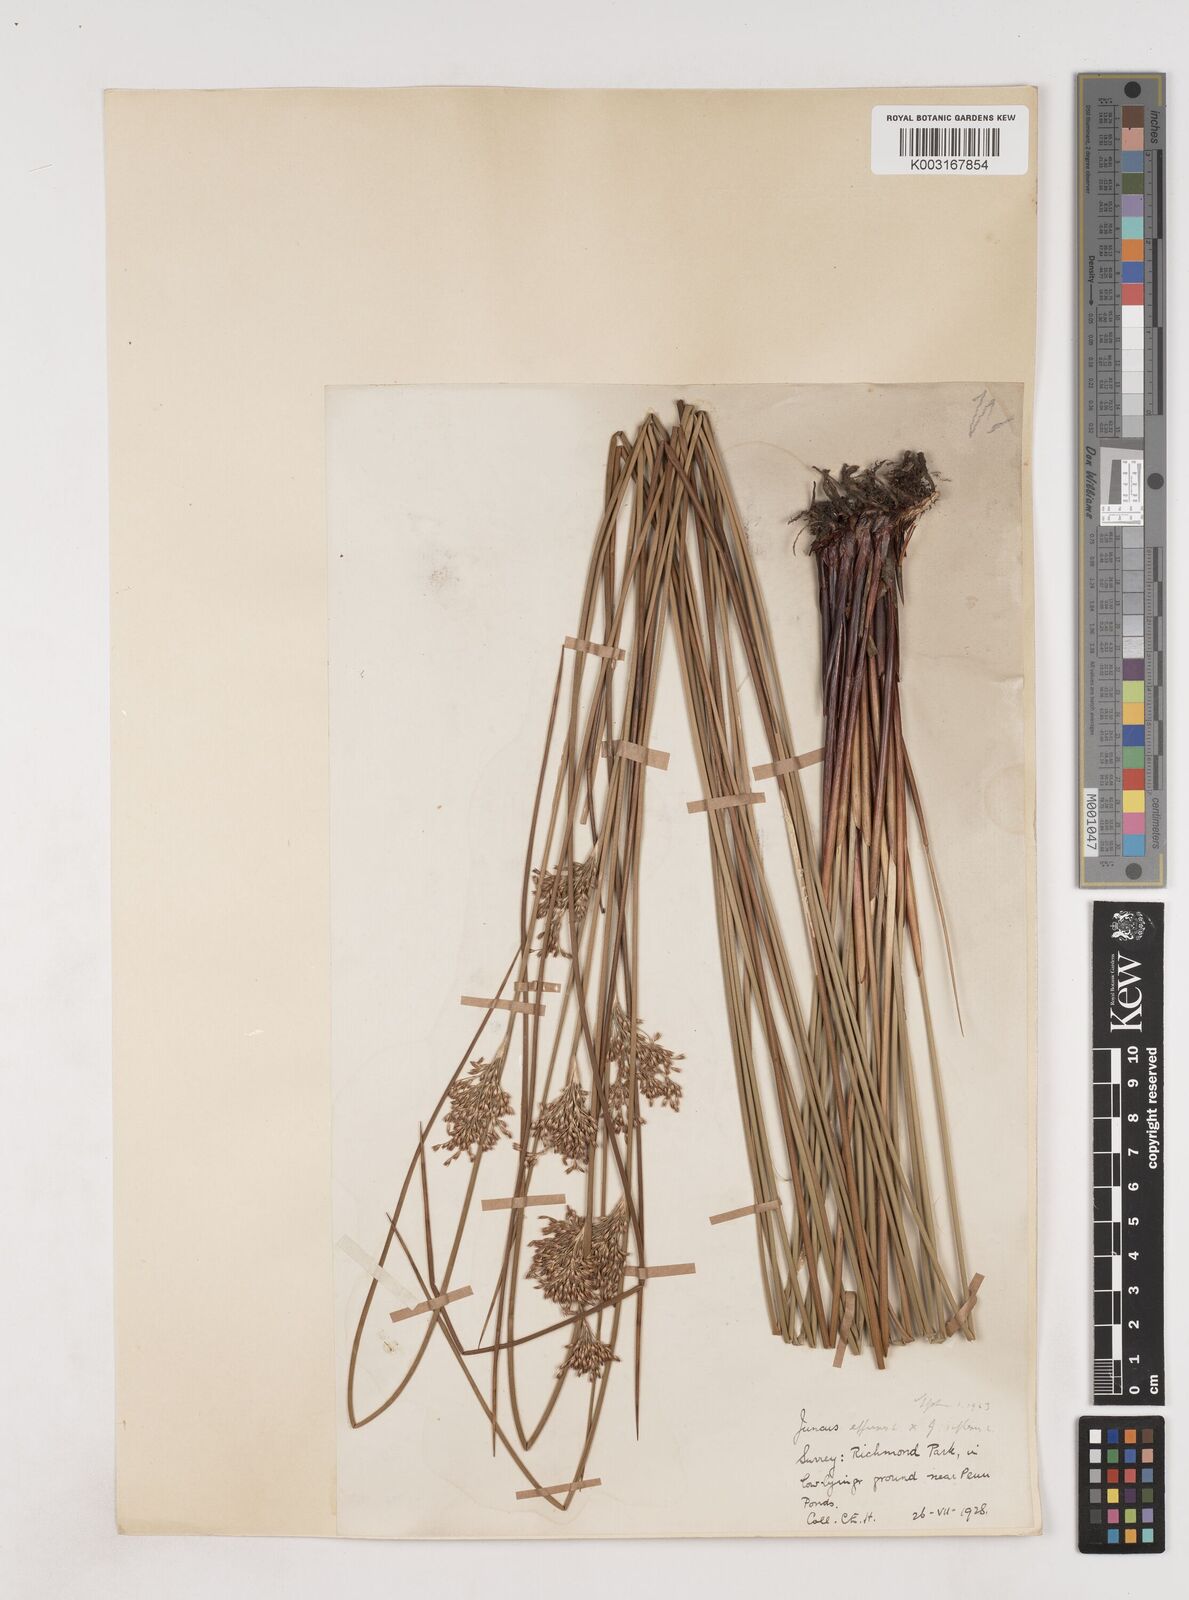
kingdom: Plantae
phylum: Tracheophyta
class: Liliopsida
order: Poales
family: Juncaceae
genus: Juncus
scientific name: Juncus effusus
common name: Soft rush
